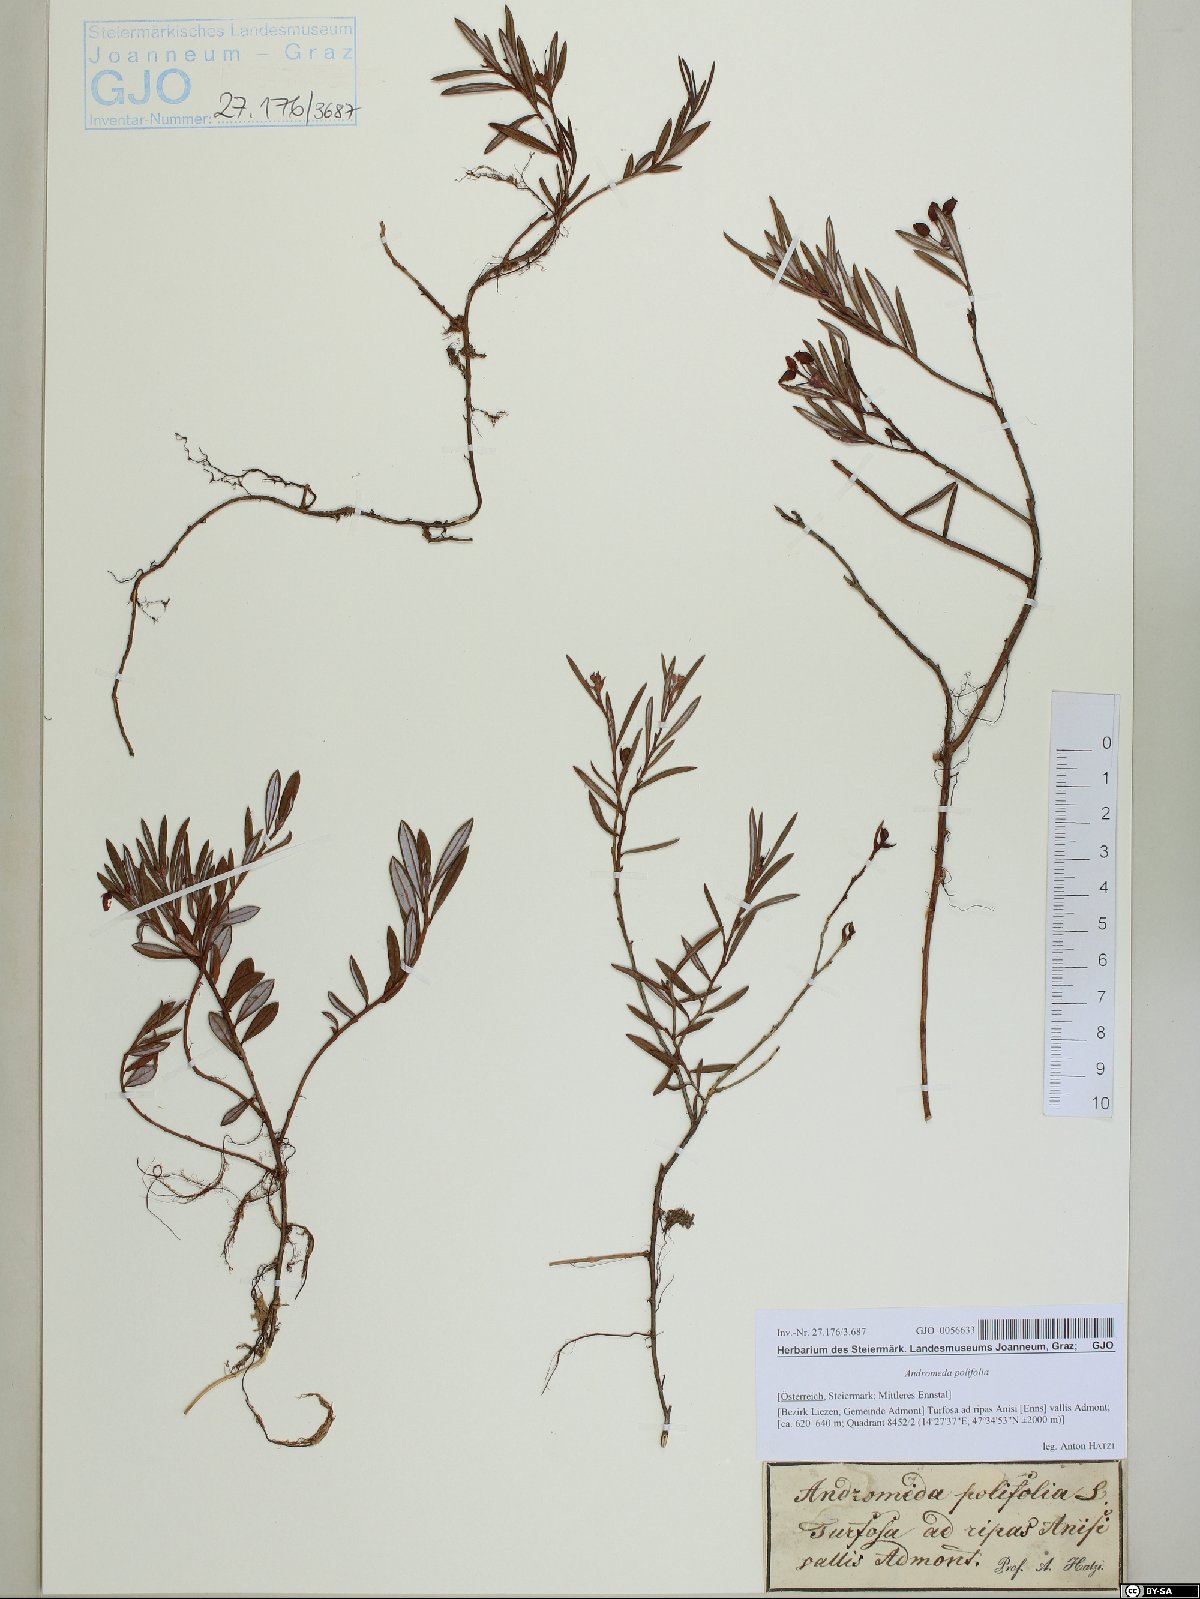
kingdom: Plantae
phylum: Tracheophyta
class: Magnoliopsida
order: Ericales
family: Ericaceae
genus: Andromeda
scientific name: Andromeda polifolia
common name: Bog-rosemary
